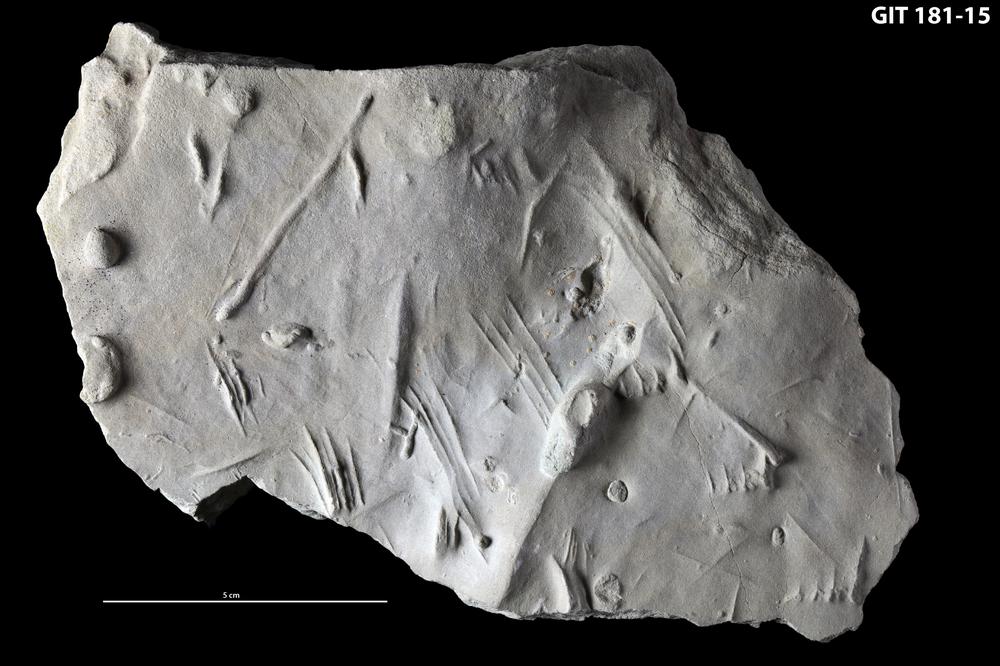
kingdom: Animalia
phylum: Arthropoda
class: Trilobita
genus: Dimorphichnus
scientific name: Dimorphichnus
